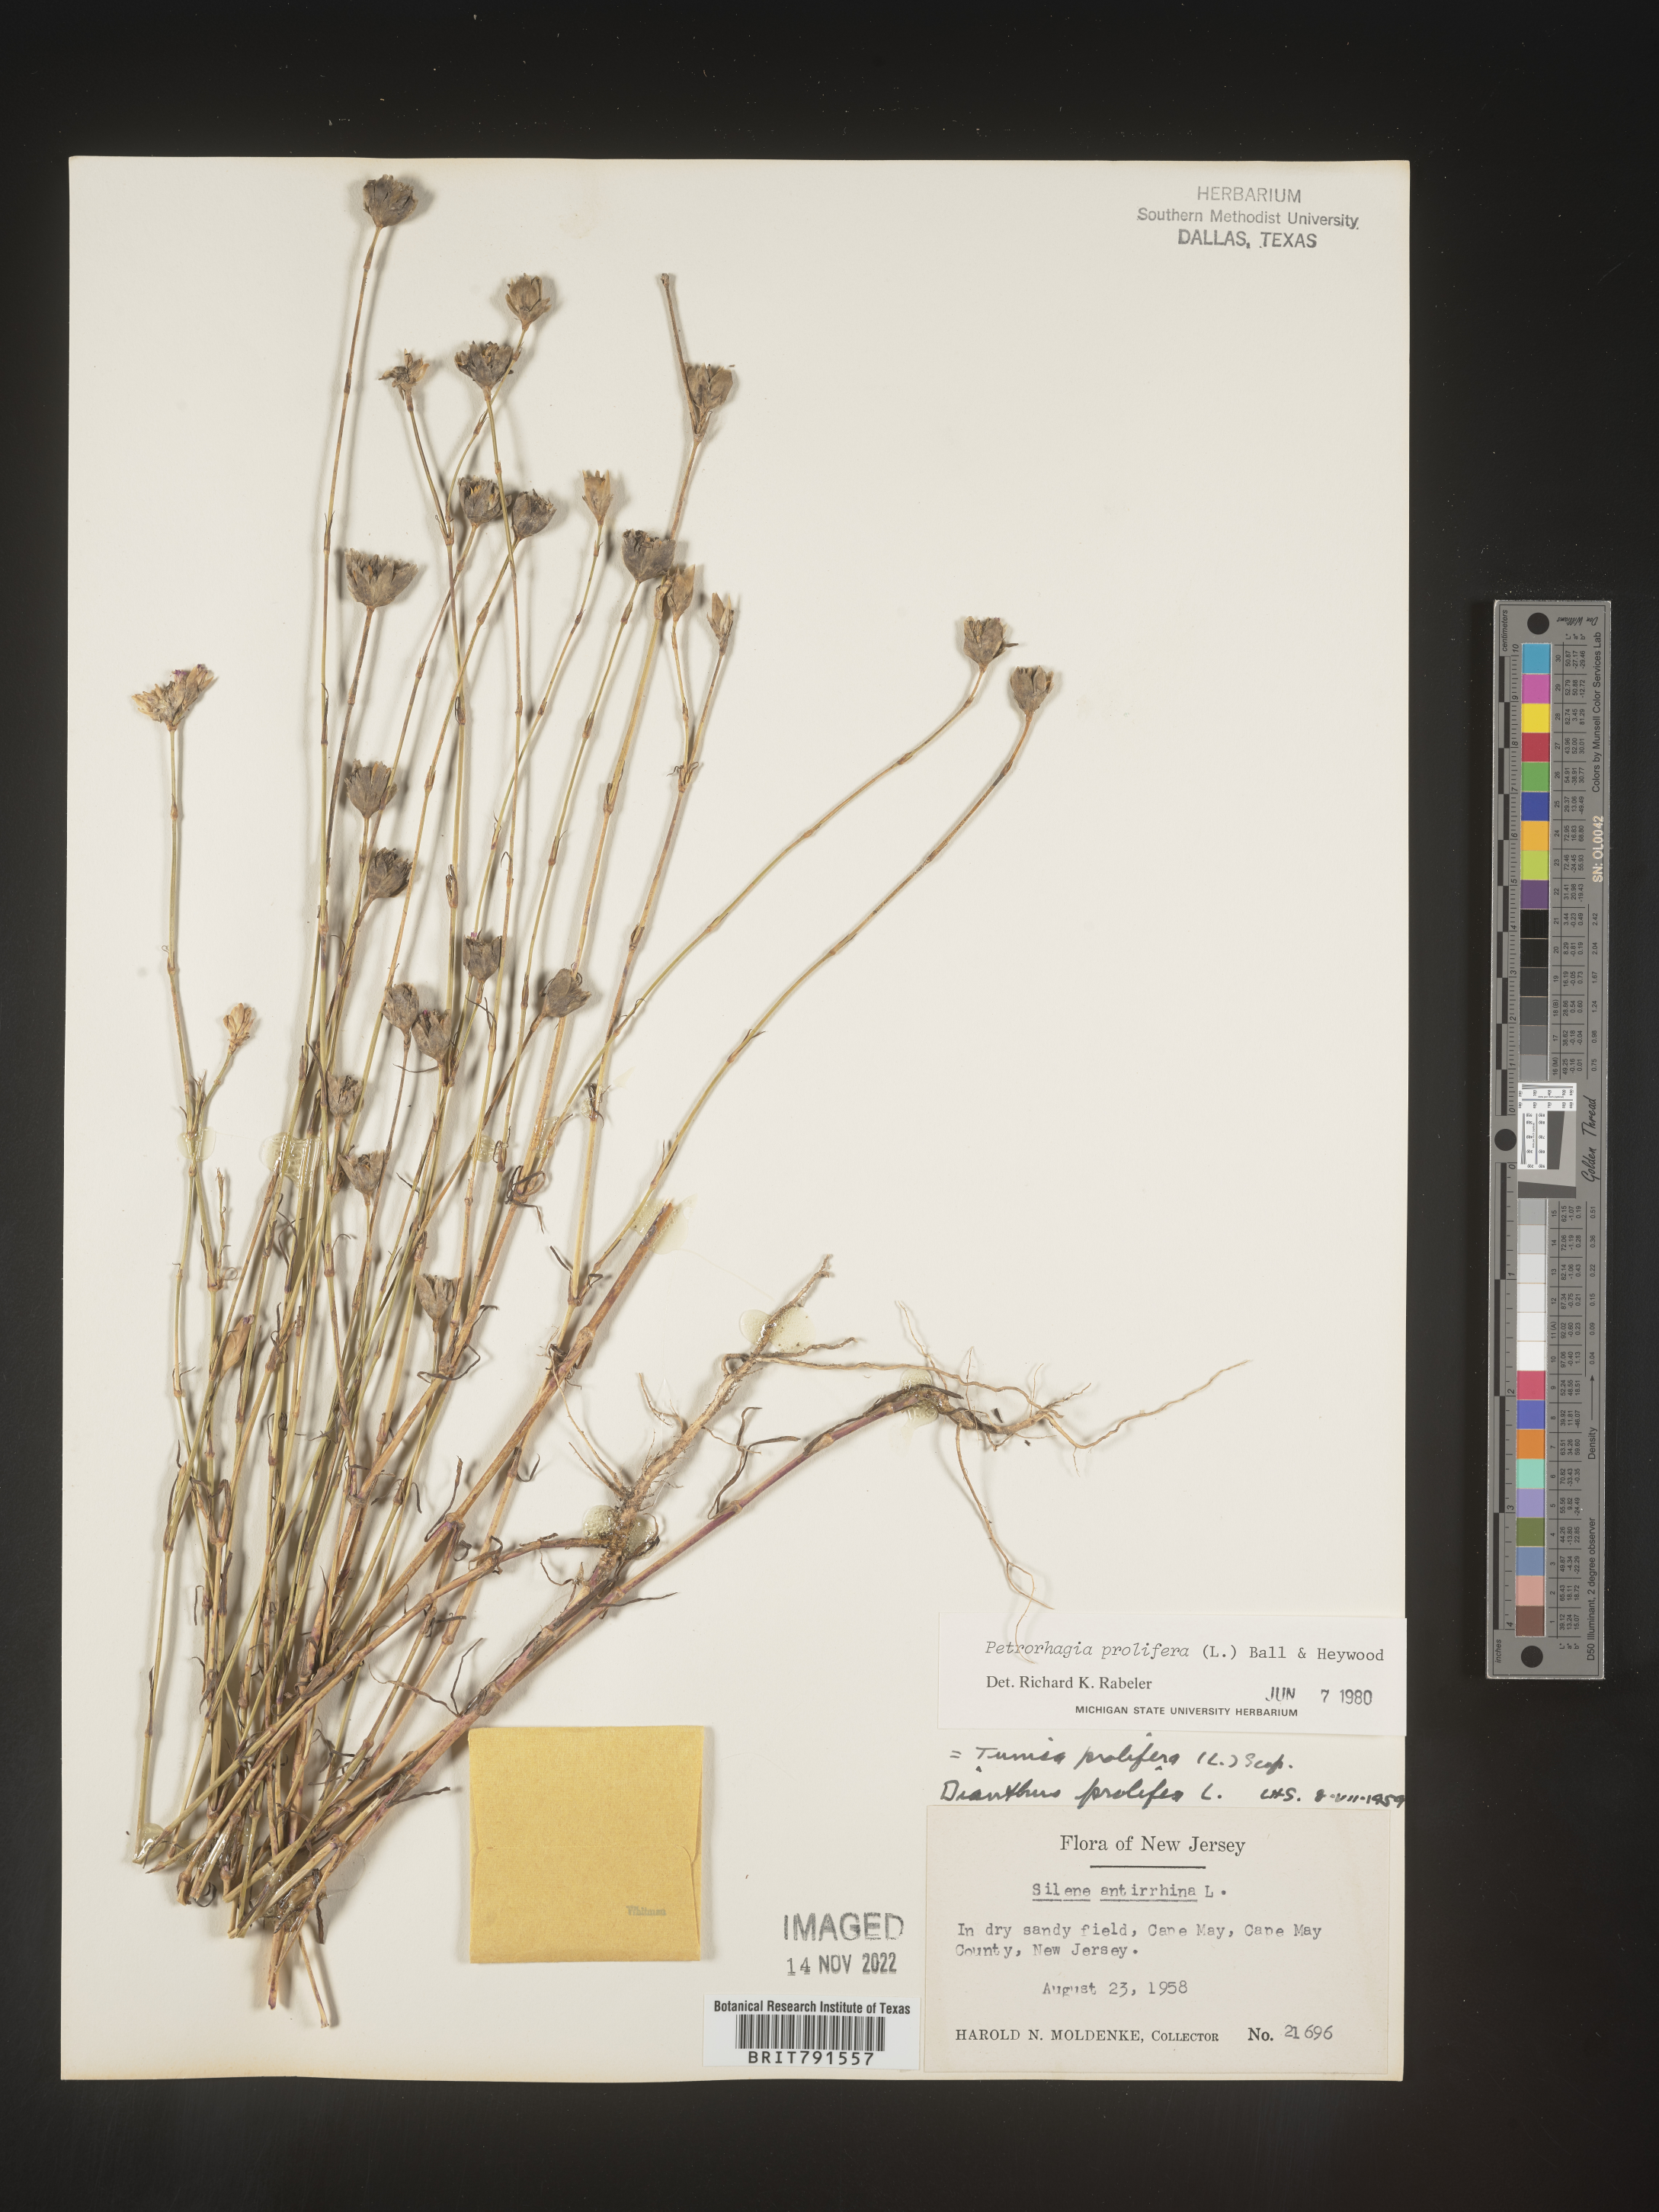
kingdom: Plantae
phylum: Tracheophyta
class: Magnoliopsida
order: Caryophyllales
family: Caryophyllaceae
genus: Petrorhagia
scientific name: Petrorhagia
